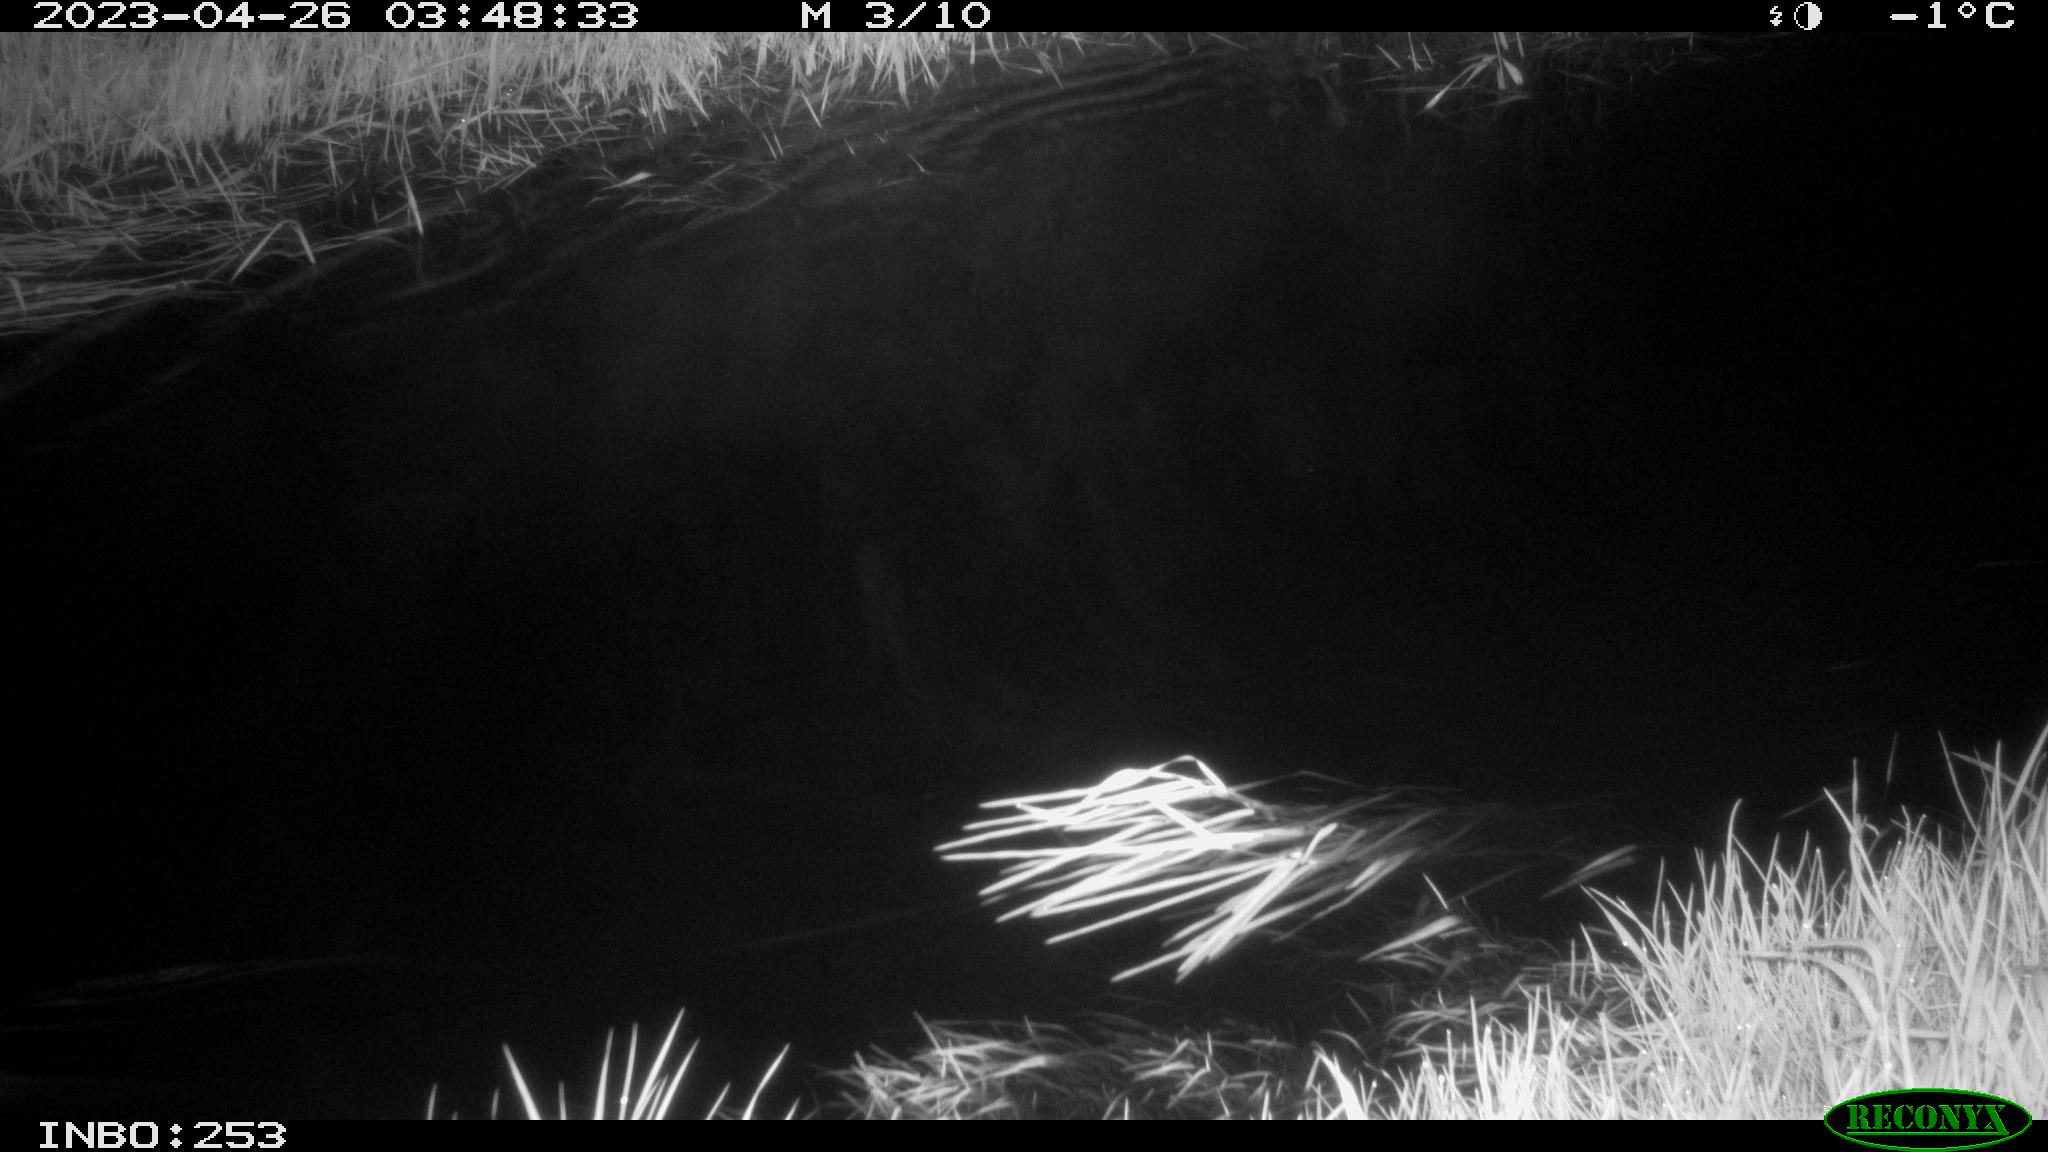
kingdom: Animalia
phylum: Chordata
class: Aves
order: Anseriformes
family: Anatidae
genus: Anas
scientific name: Anas
